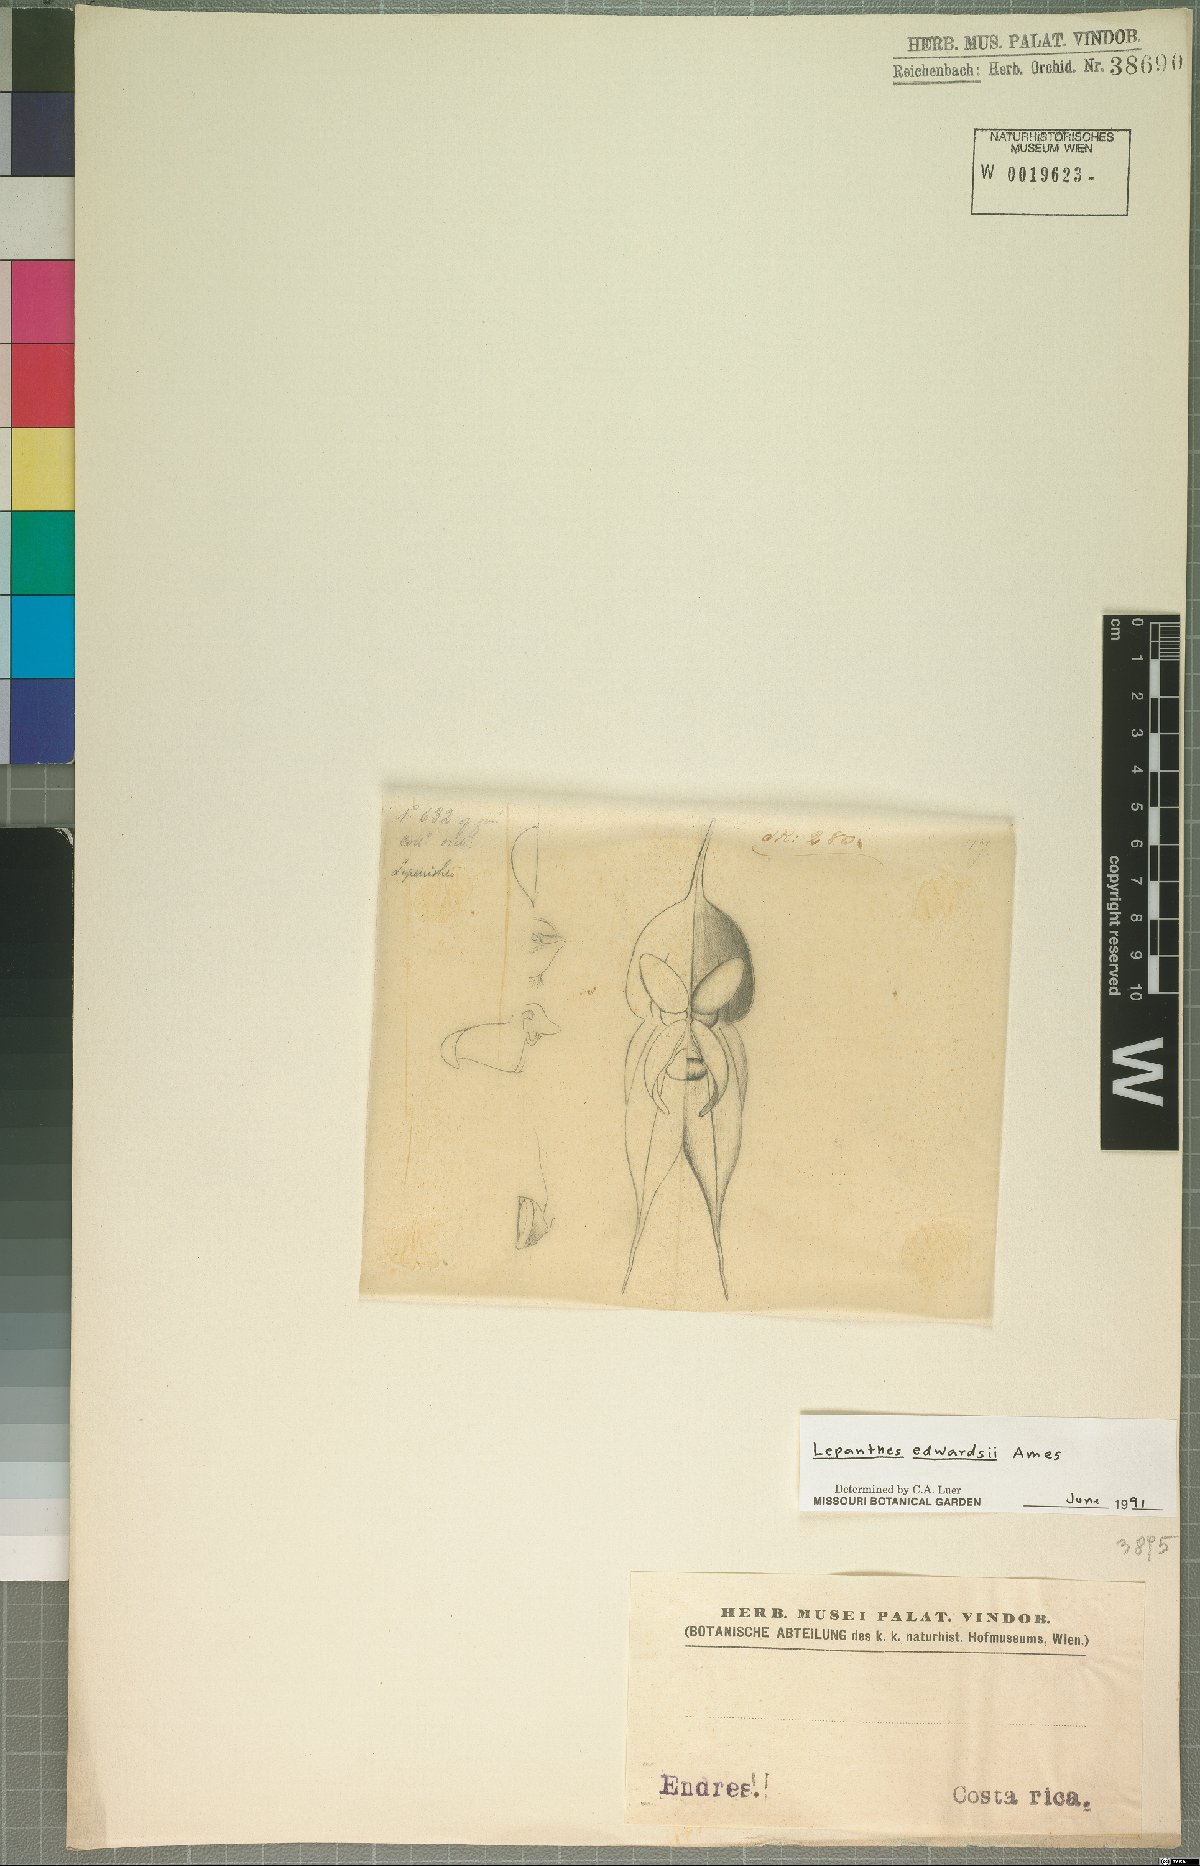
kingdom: Plantae
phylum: Tracheophyta
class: Liliopsida
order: Asparagales
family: Orchidaceae
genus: Lepanthes
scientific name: Lepanthes edwardsii
